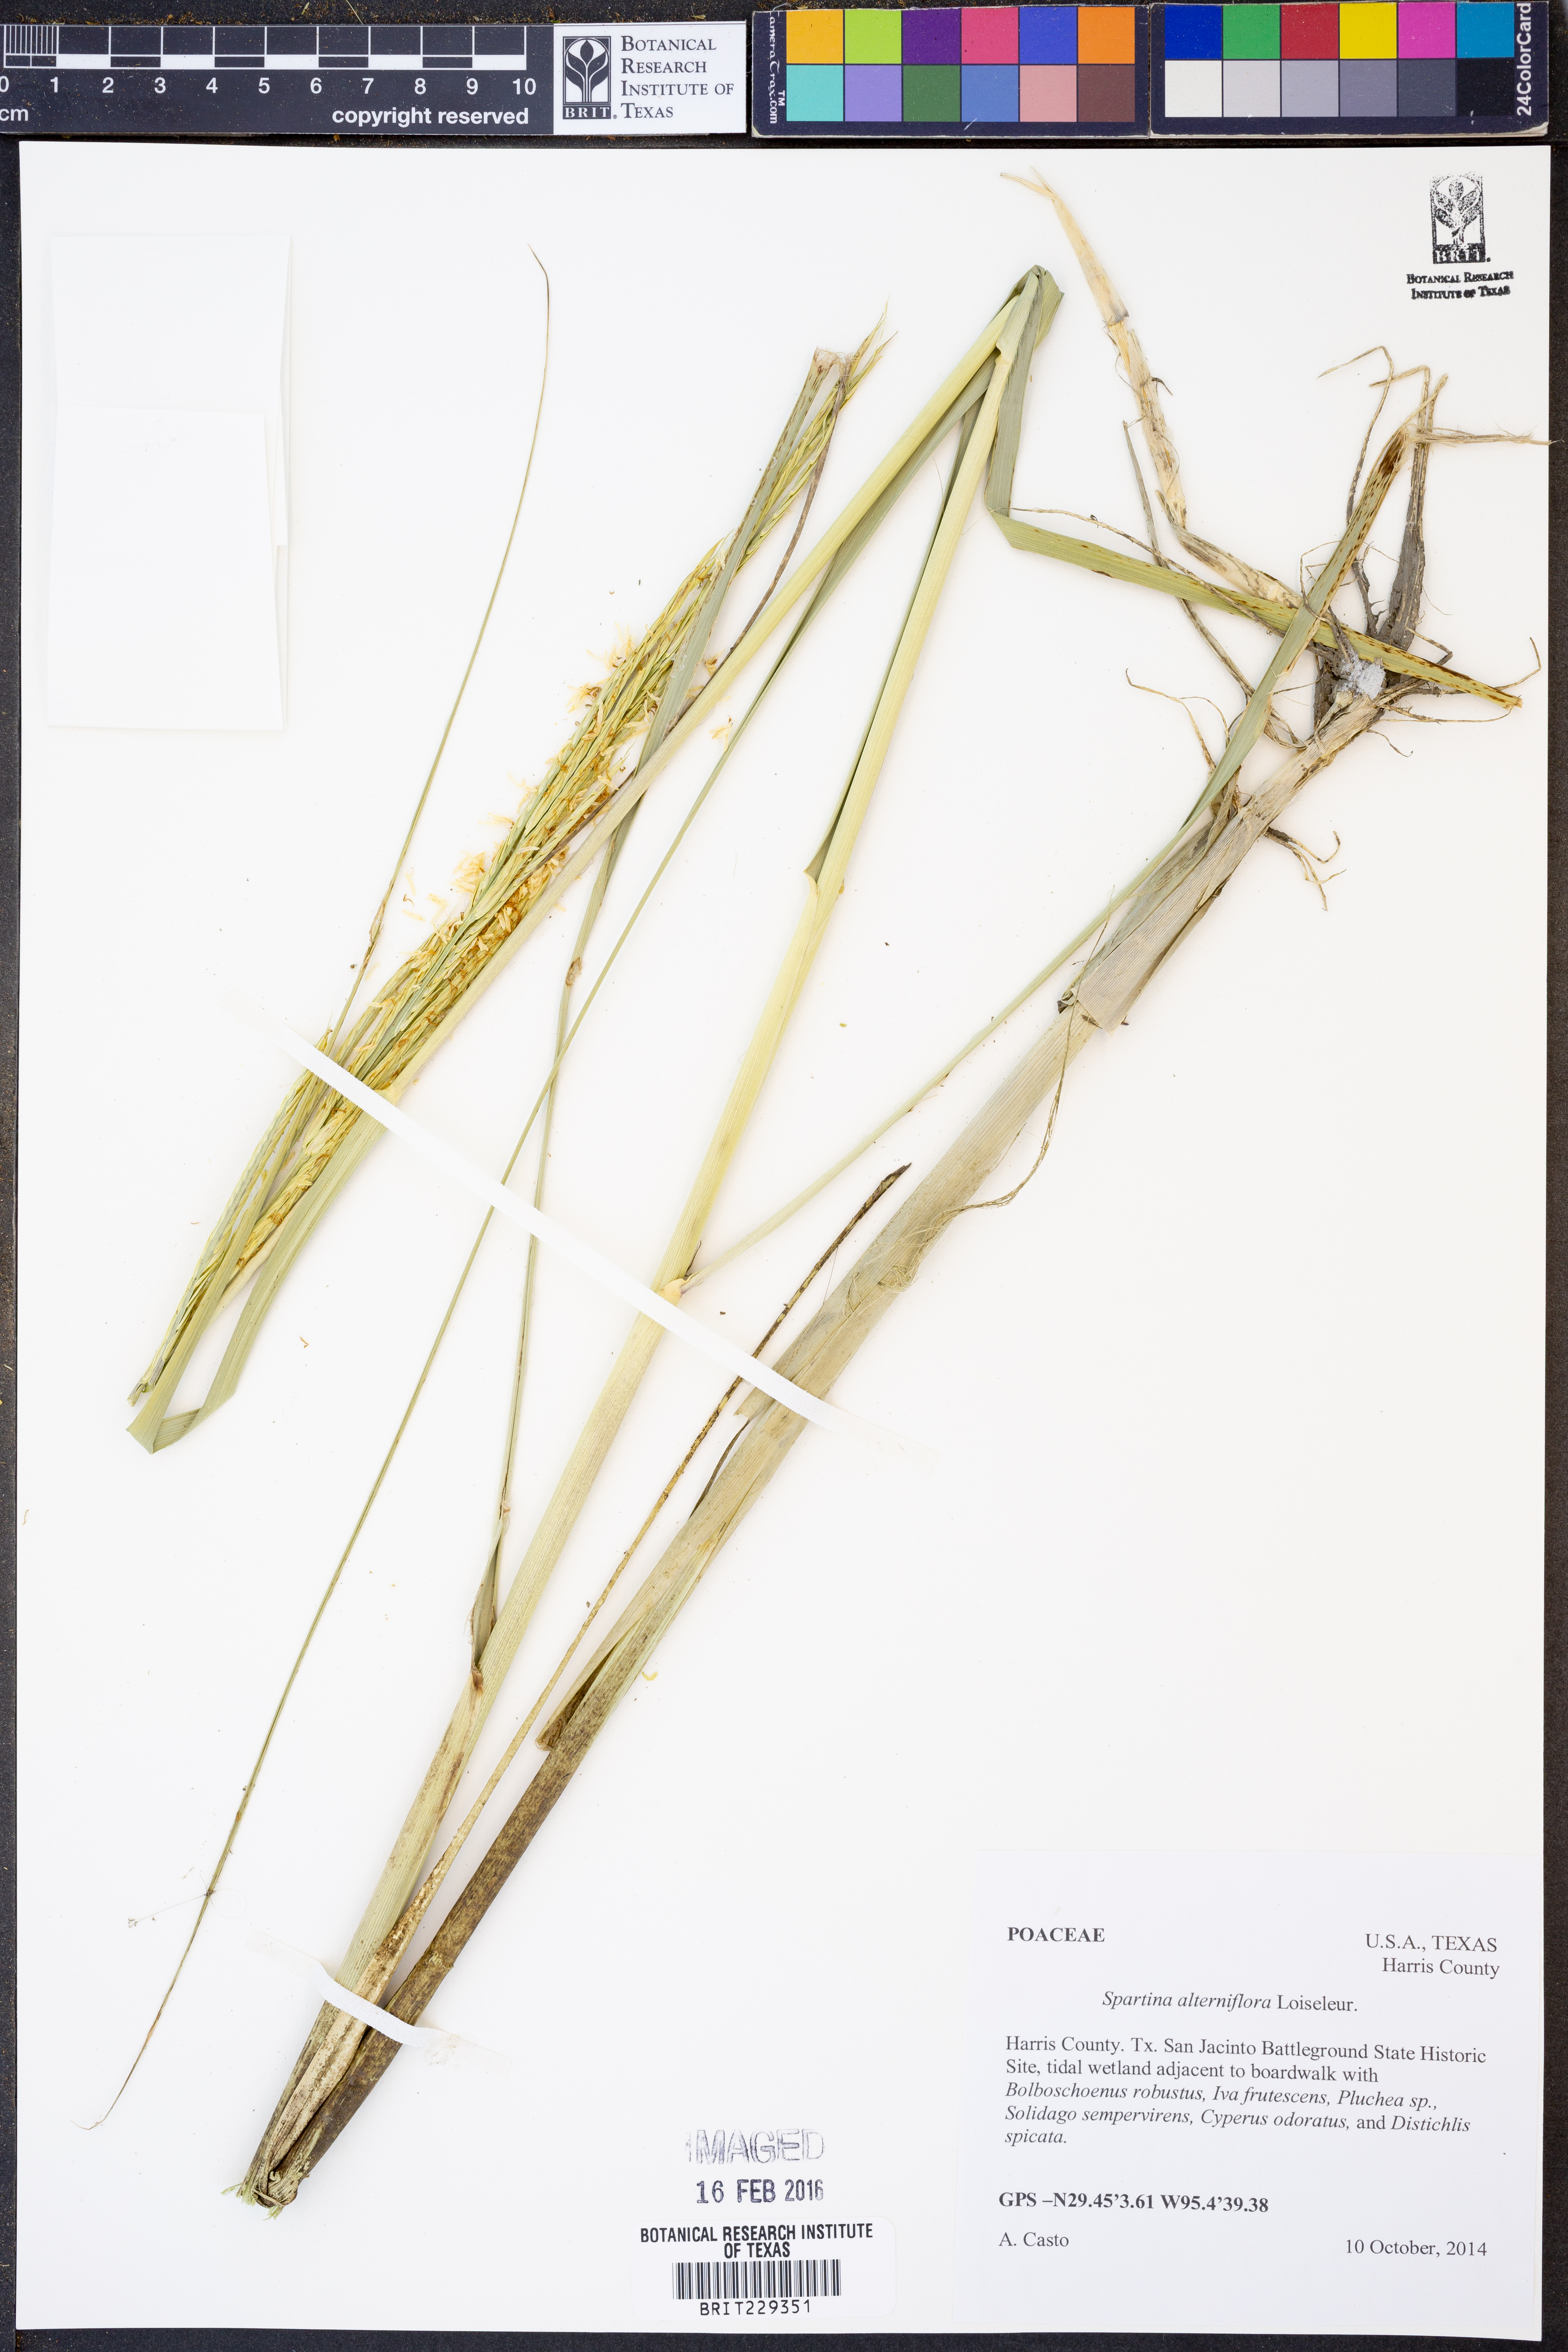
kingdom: Plantae
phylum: Tracheophyta
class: Liliopsida
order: Poales
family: Poaceae
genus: Sporobolus
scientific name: Sporobolus alterniflorus
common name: Atlantic cordgrass
